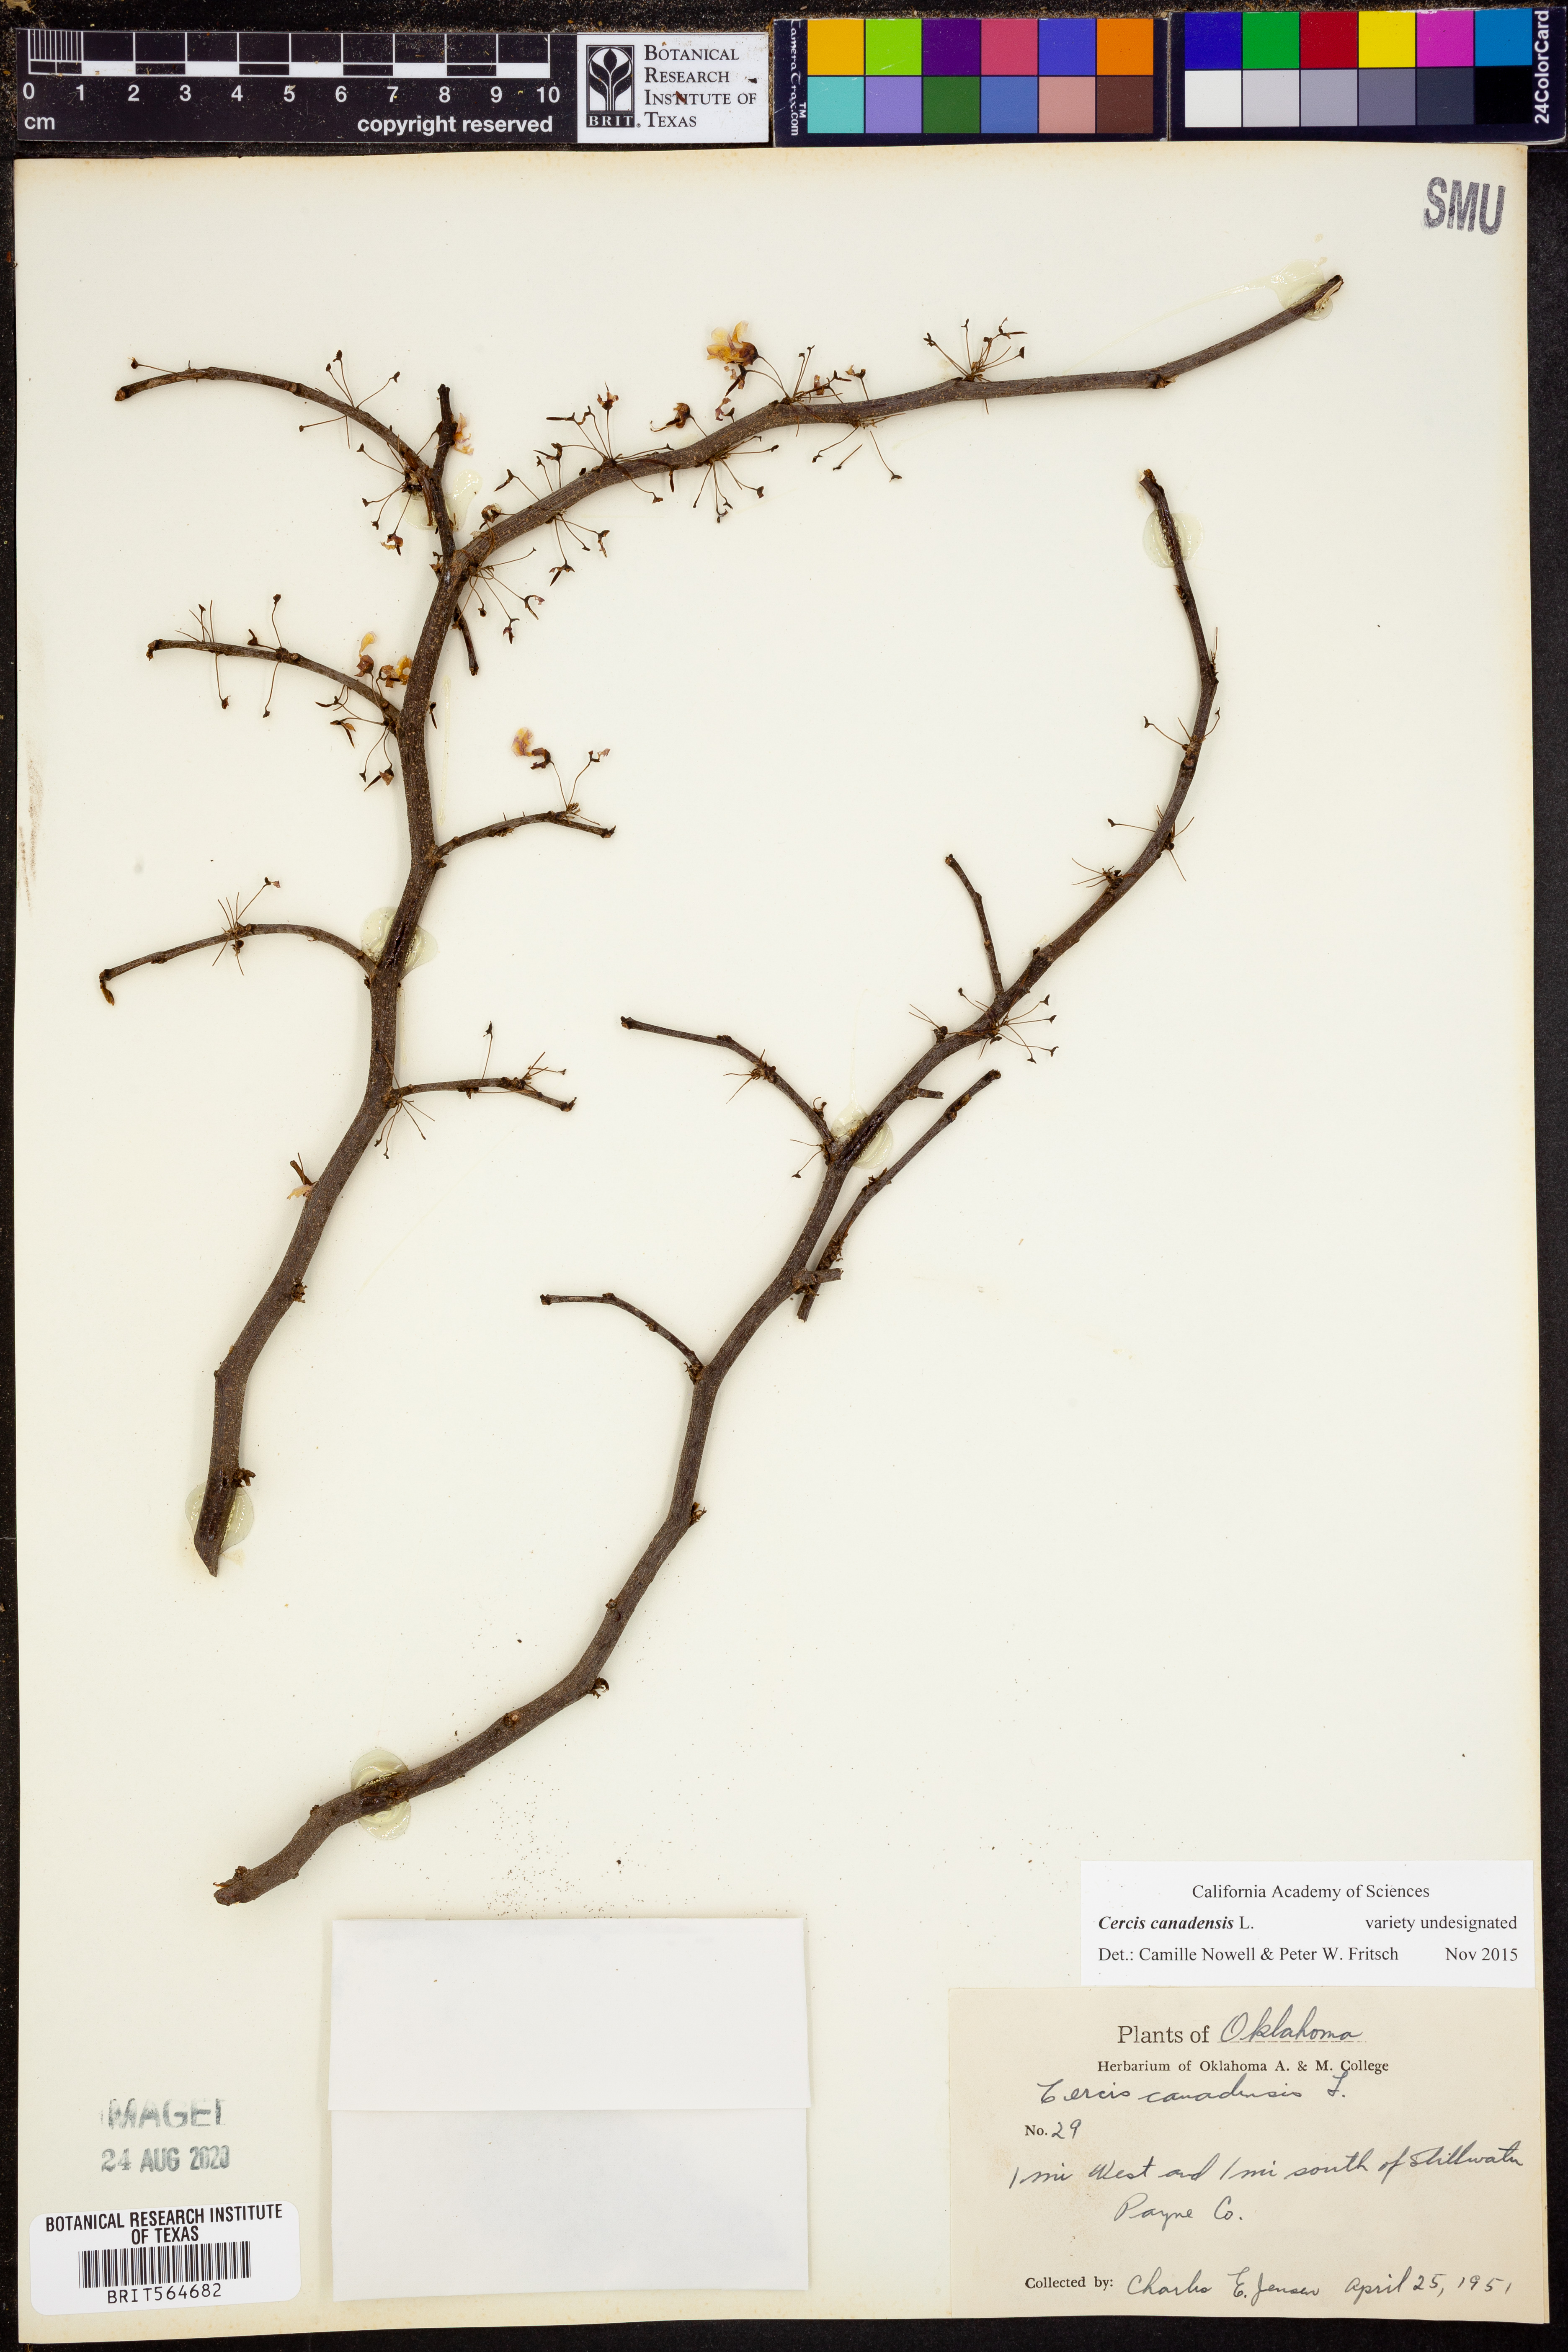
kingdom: Plantae
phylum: Tracheophyta
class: Magnoliopsida
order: Fabales
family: Fabaceae
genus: Cercis
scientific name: Cercis canadensis
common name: Eastern redbud
